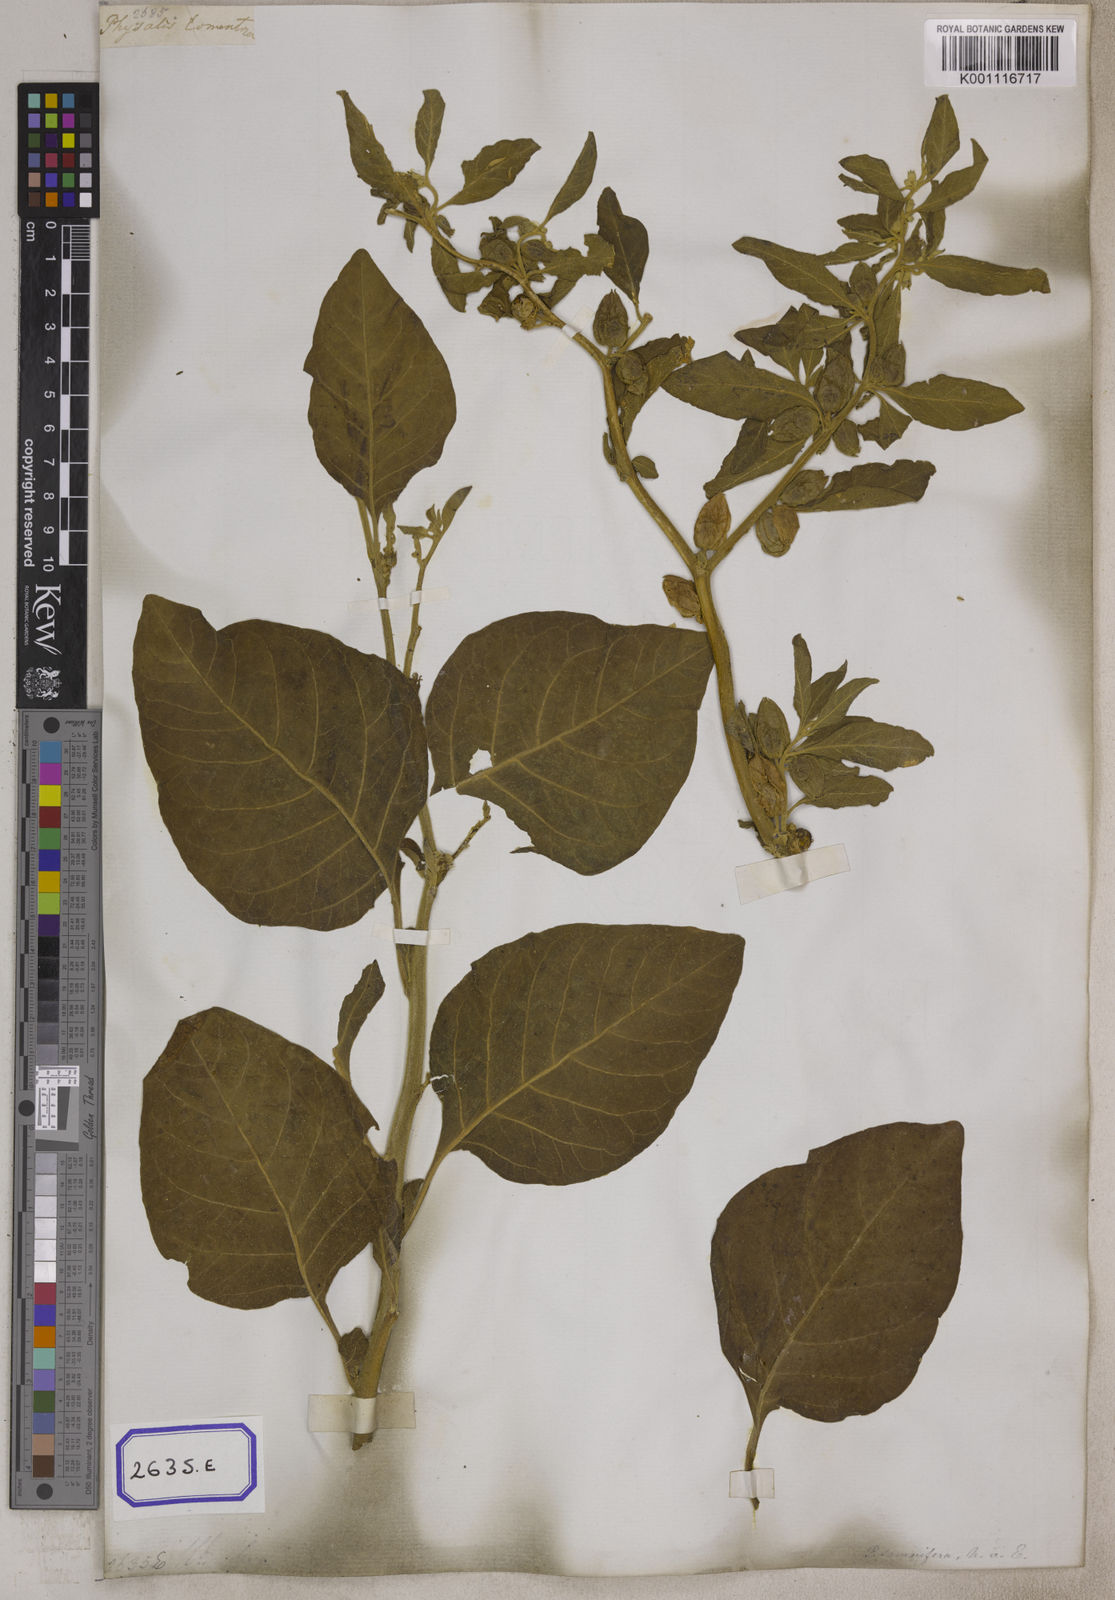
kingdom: Plantae
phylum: Tracheophyta
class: Magnoliopsida
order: Solanales
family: Solanaceae
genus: Withania
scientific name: Withania somnifera
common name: Winter-cherry
